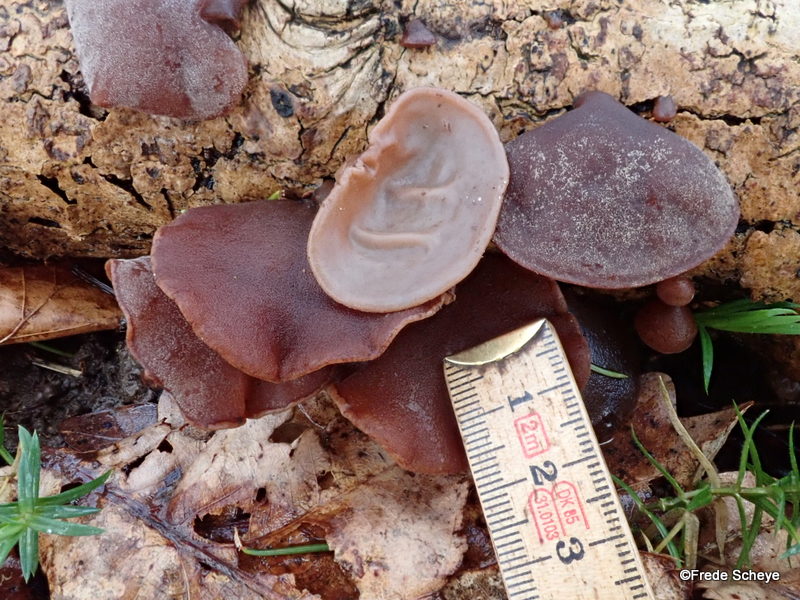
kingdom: Fungi
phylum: Basidiomycota
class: Agaricomycetes
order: Auriculariales
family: Auriculariaceae
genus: Auricularia
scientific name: Auricularia auricula-judae
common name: almindelig judasøre
